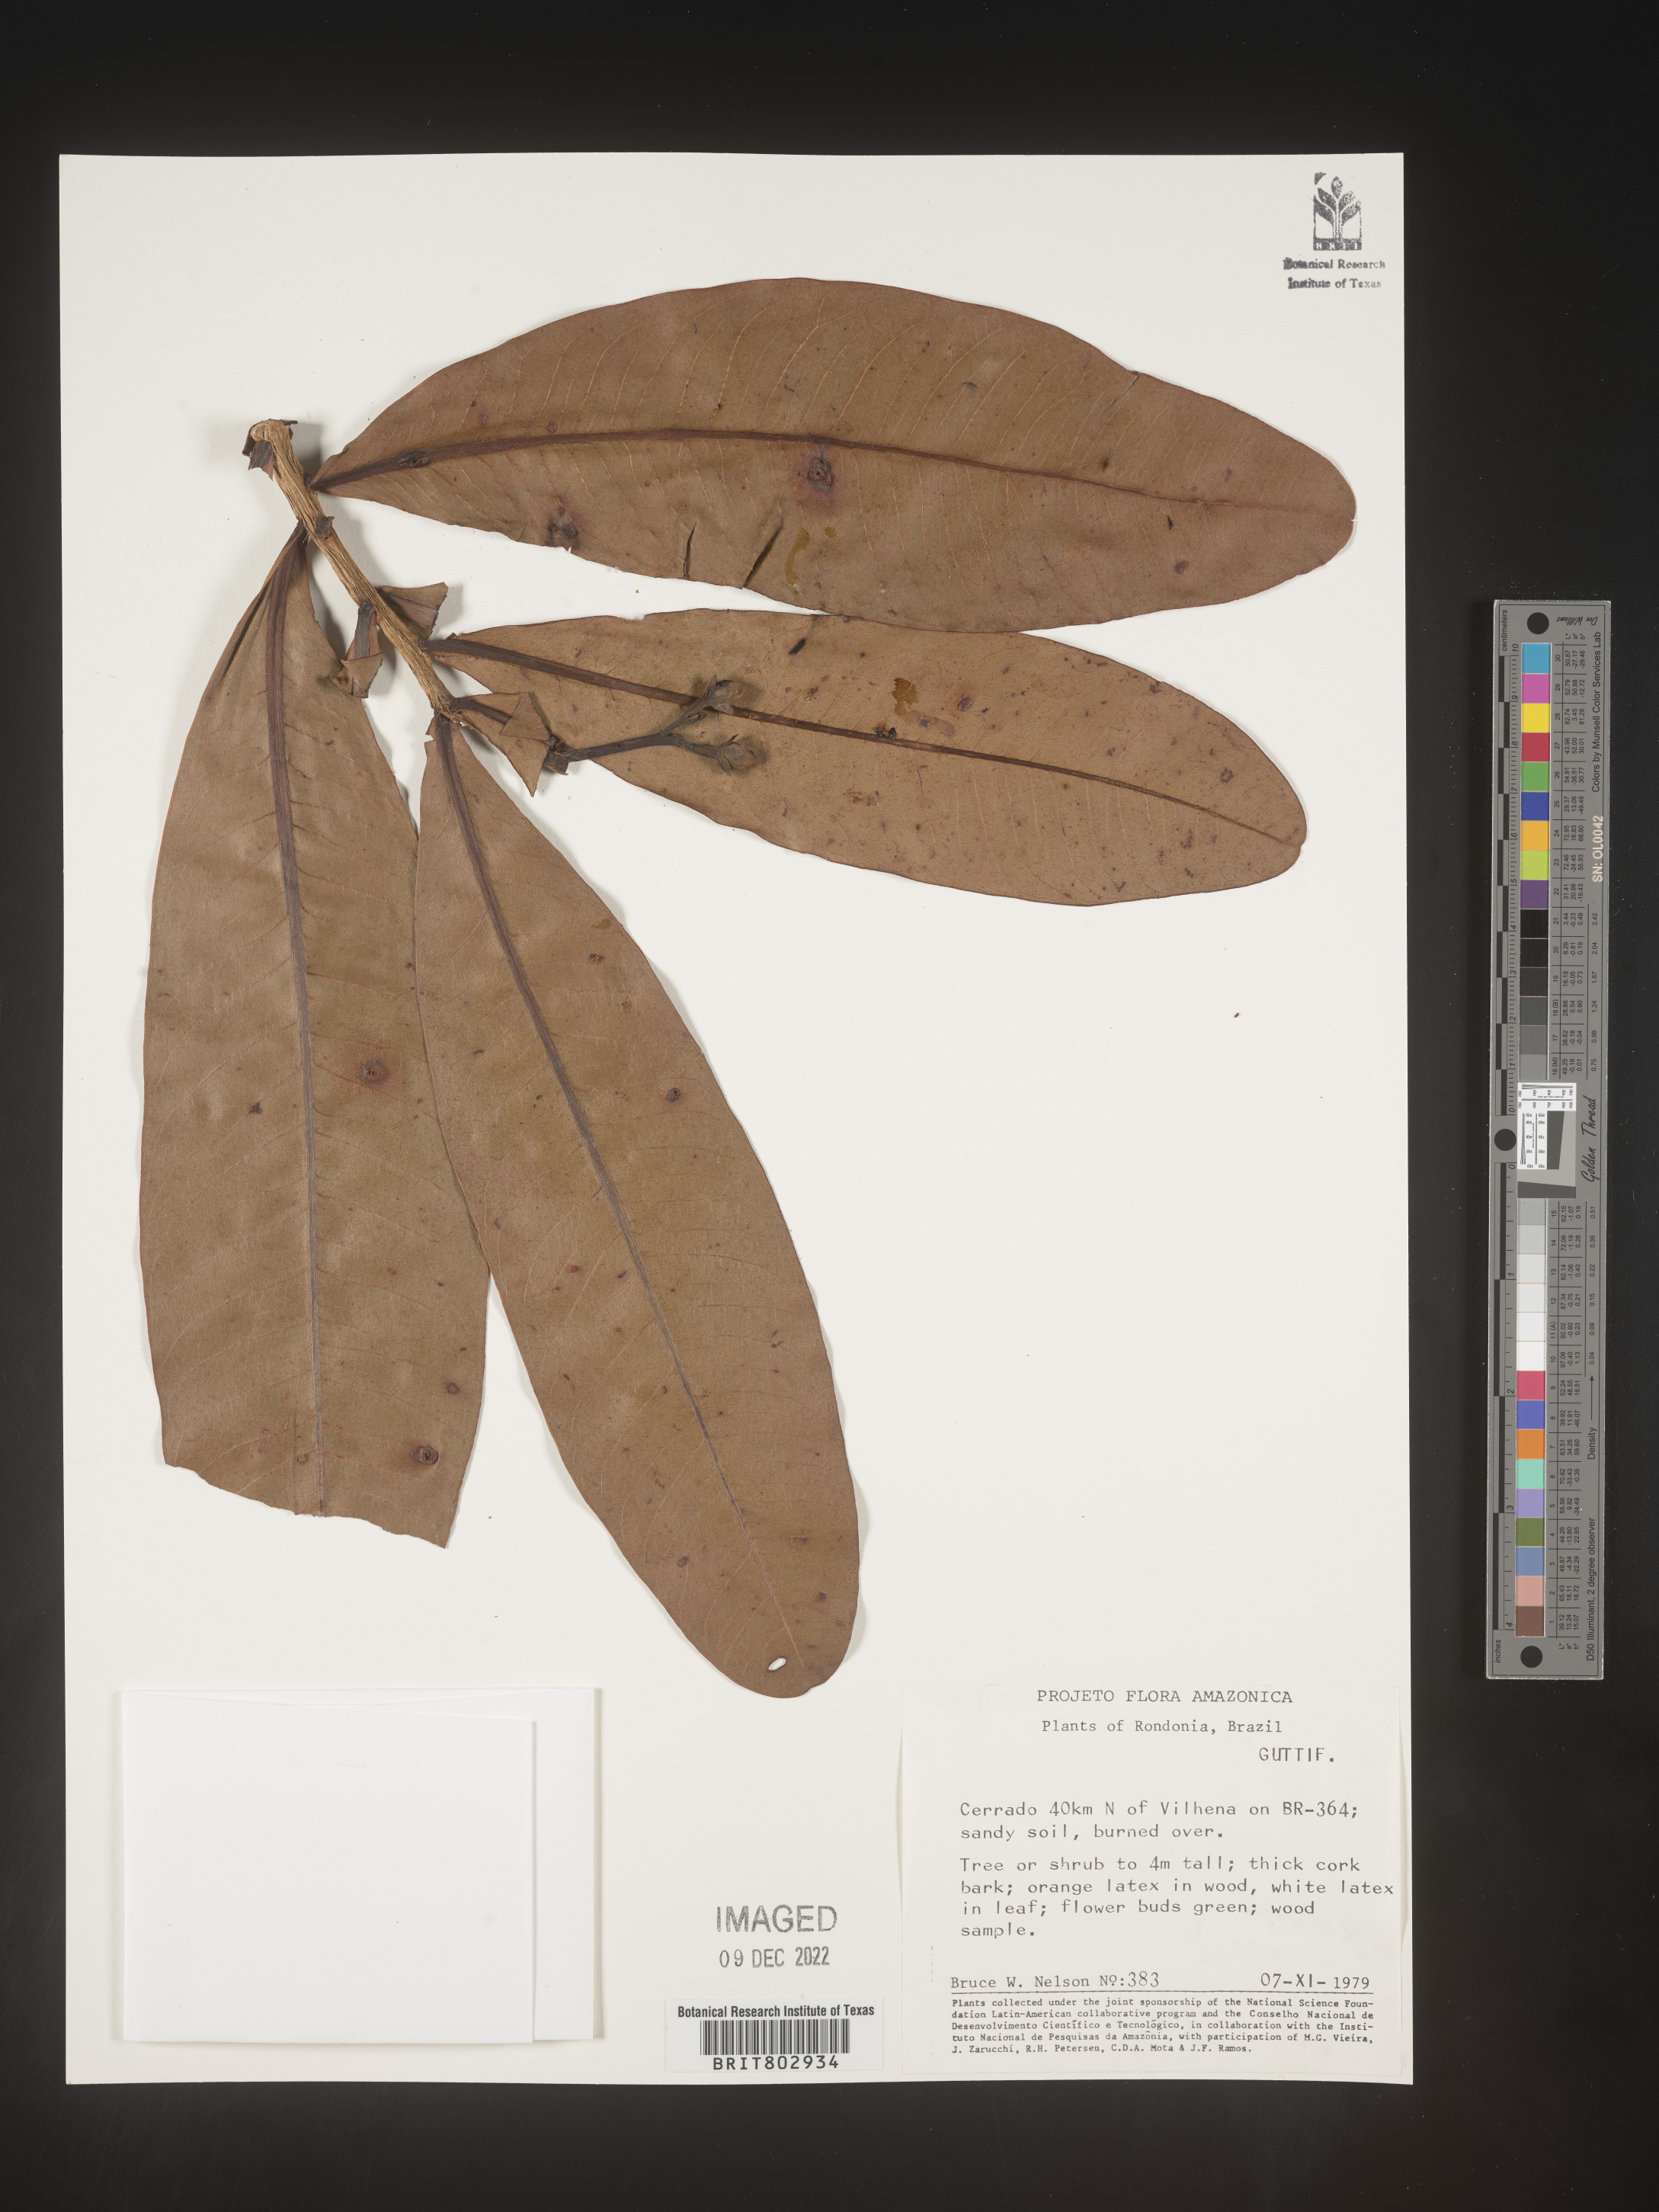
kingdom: Plantae
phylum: Tracheophyta
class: Magnoliopsida
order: Malpighiales
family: Calophyllaceae
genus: Kielmeyera
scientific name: Kielmeyera
